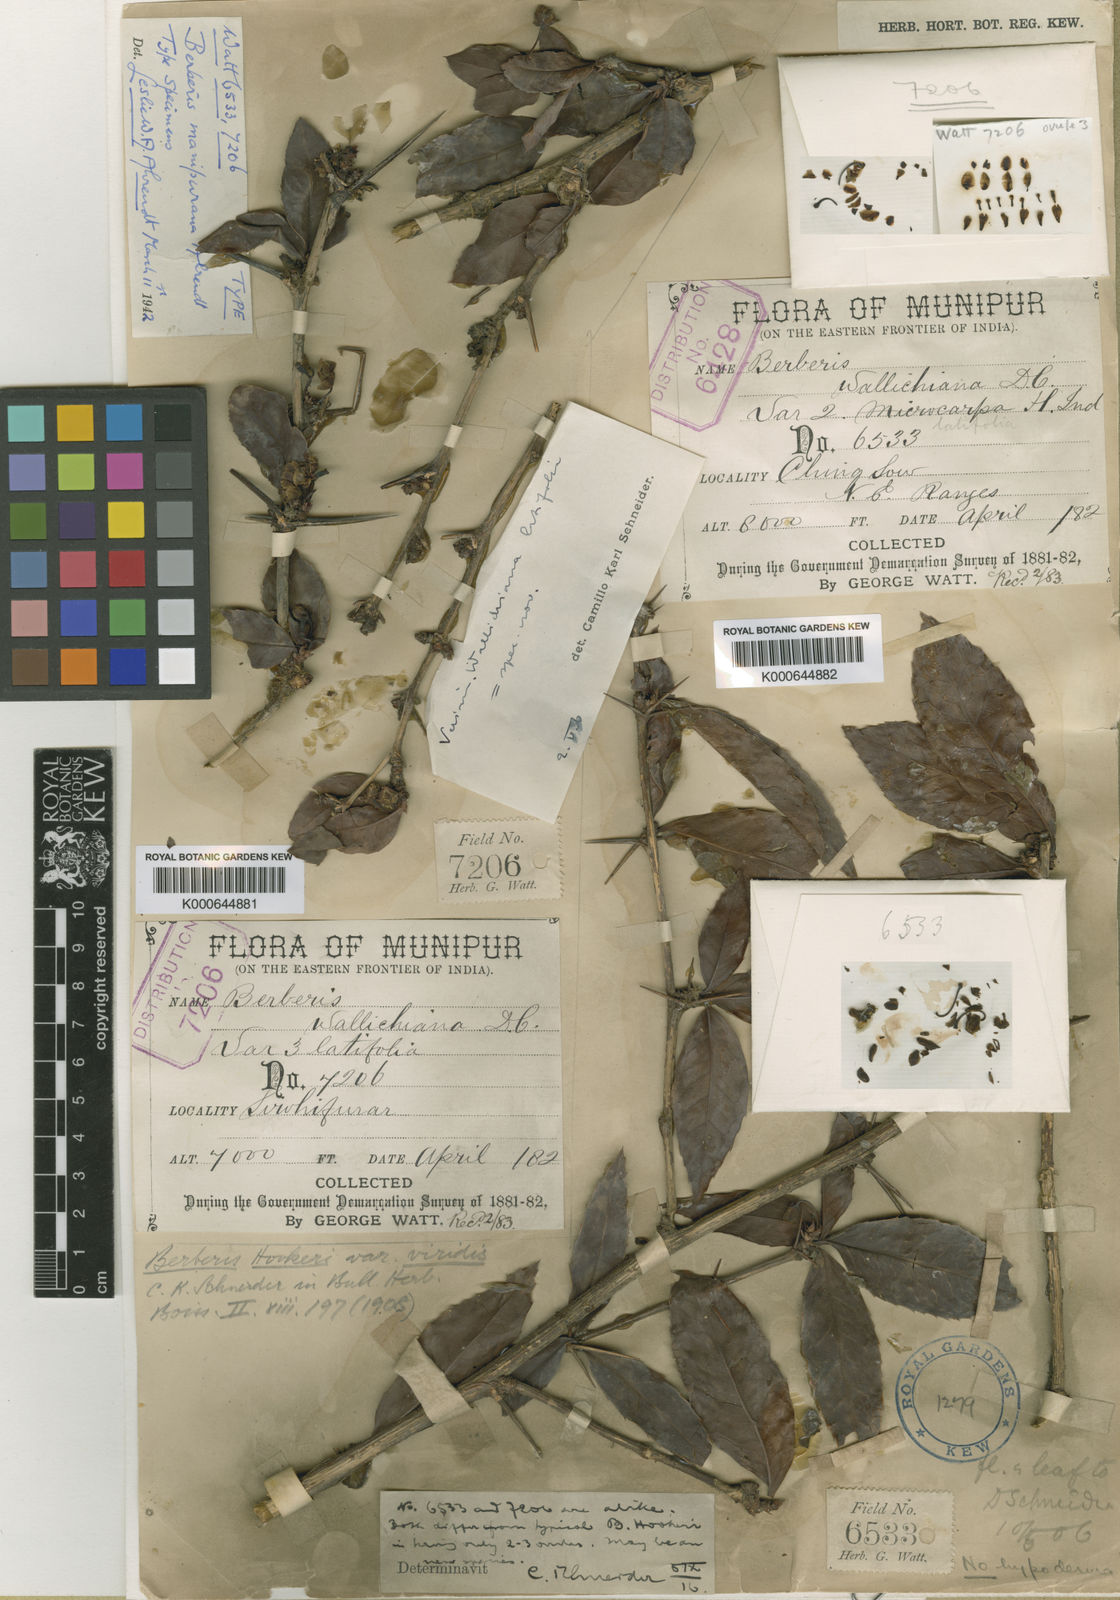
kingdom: Plantae
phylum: Tracheophyta
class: Magnoliopsida
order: Ranunculales
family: Berberidaceae
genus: Berberis
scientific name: Berberis manipurana
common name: Manipur barberry
